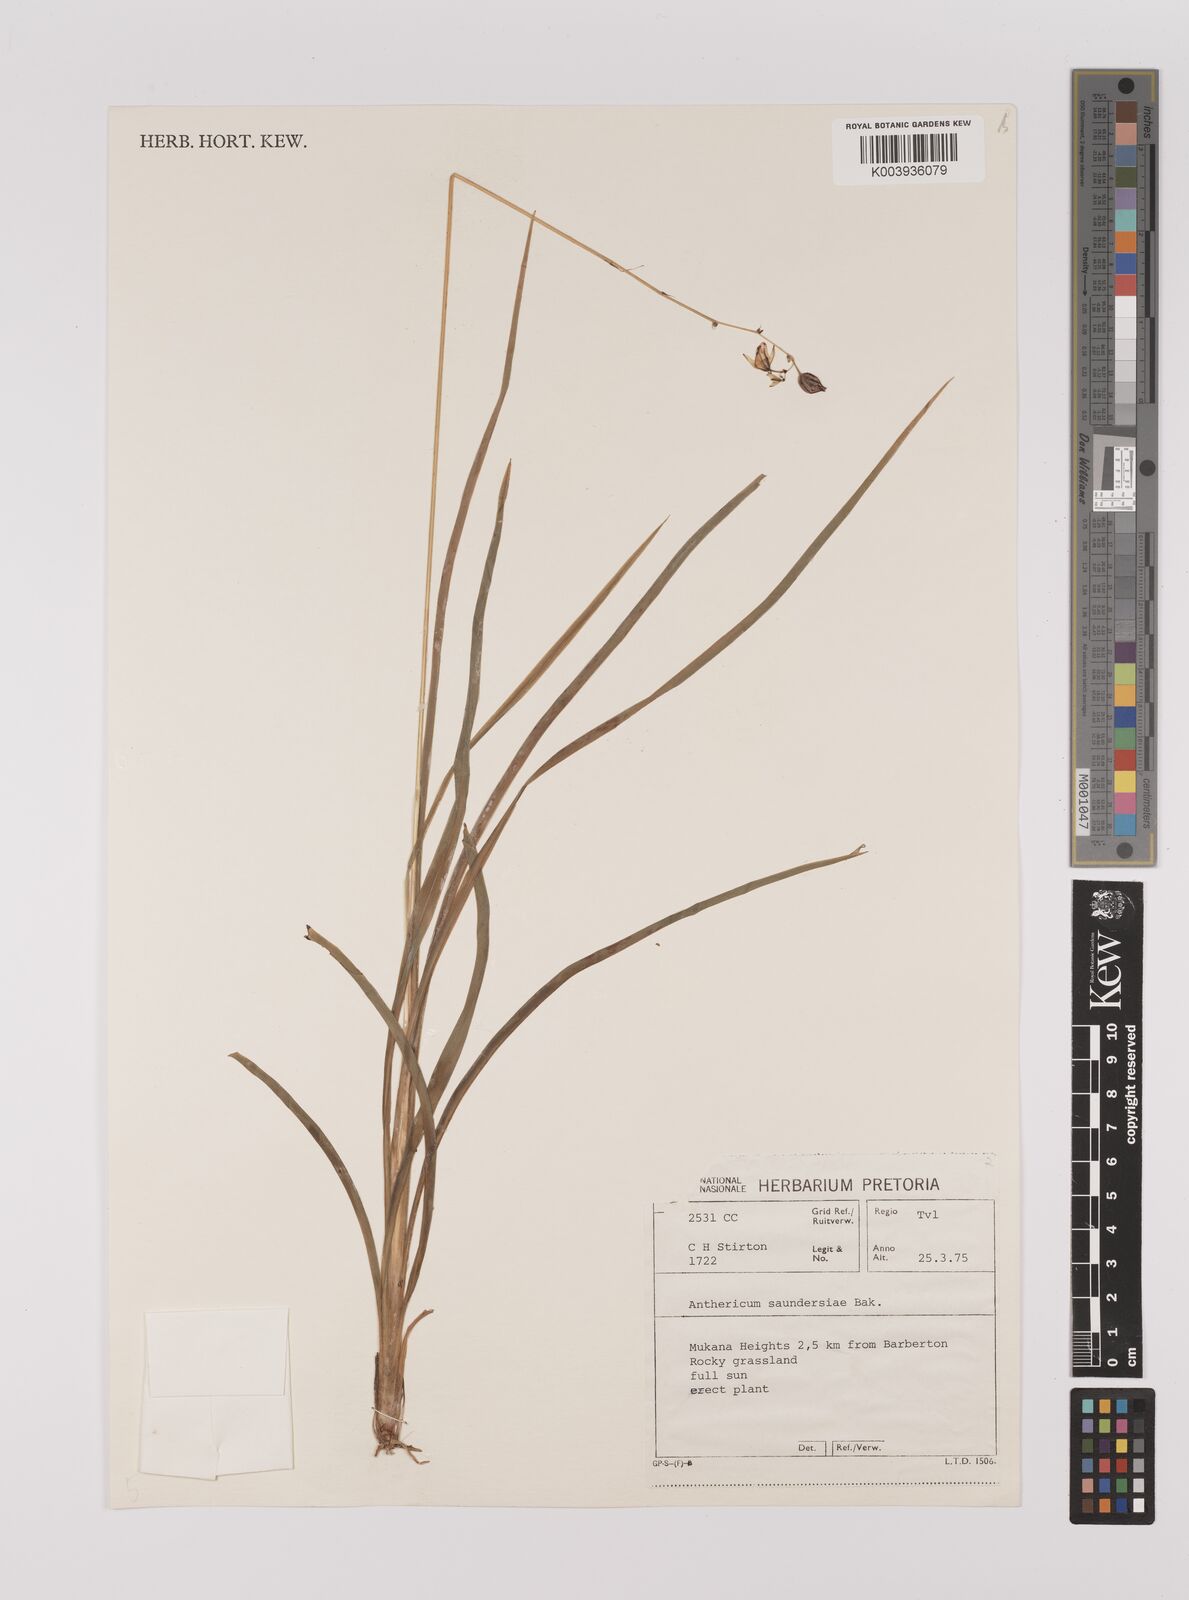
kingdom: Plantae
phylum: Tracheophyta
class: Liliopsida
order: Asparagales
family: Asparagaceae
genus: Chlorophytum
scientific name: Chlorophytum saundersiae
